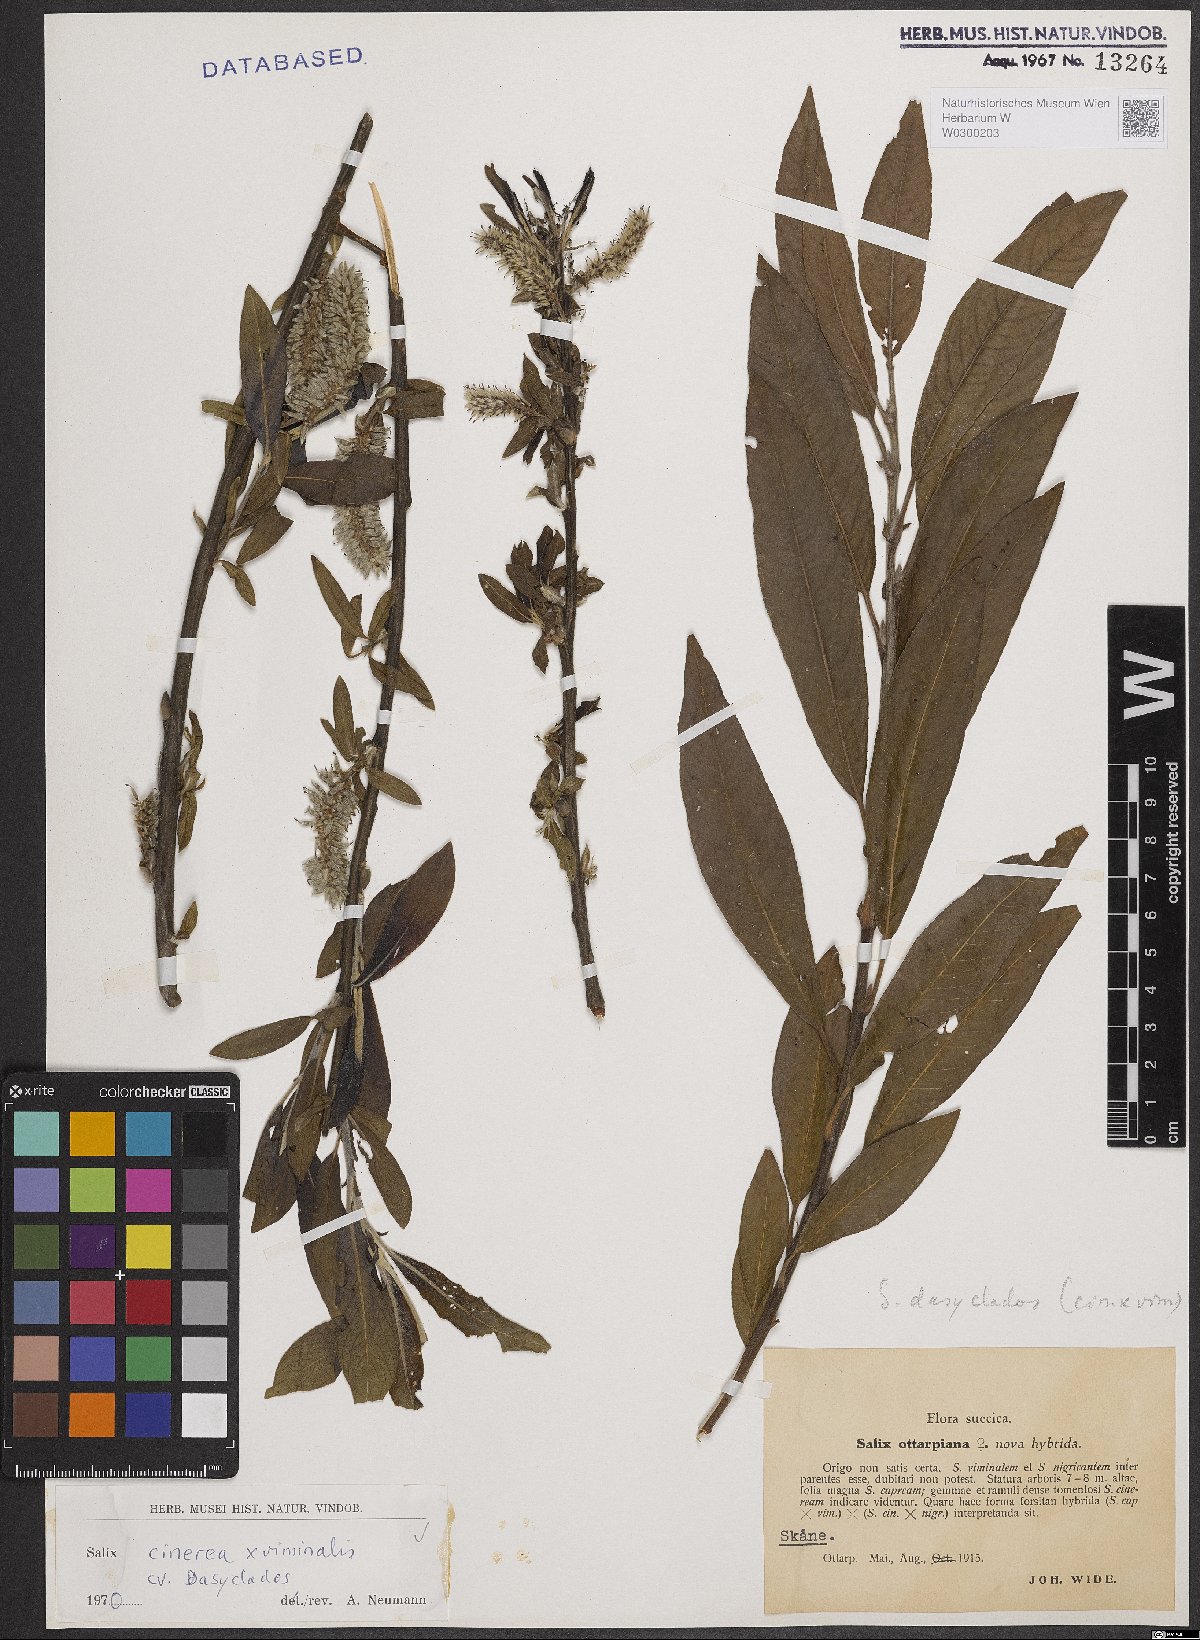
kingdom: Plantae
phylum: Tracheophyta
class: Magnoliopsida
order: Malpighiales
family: Salicaceae
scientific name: Salicaceae
